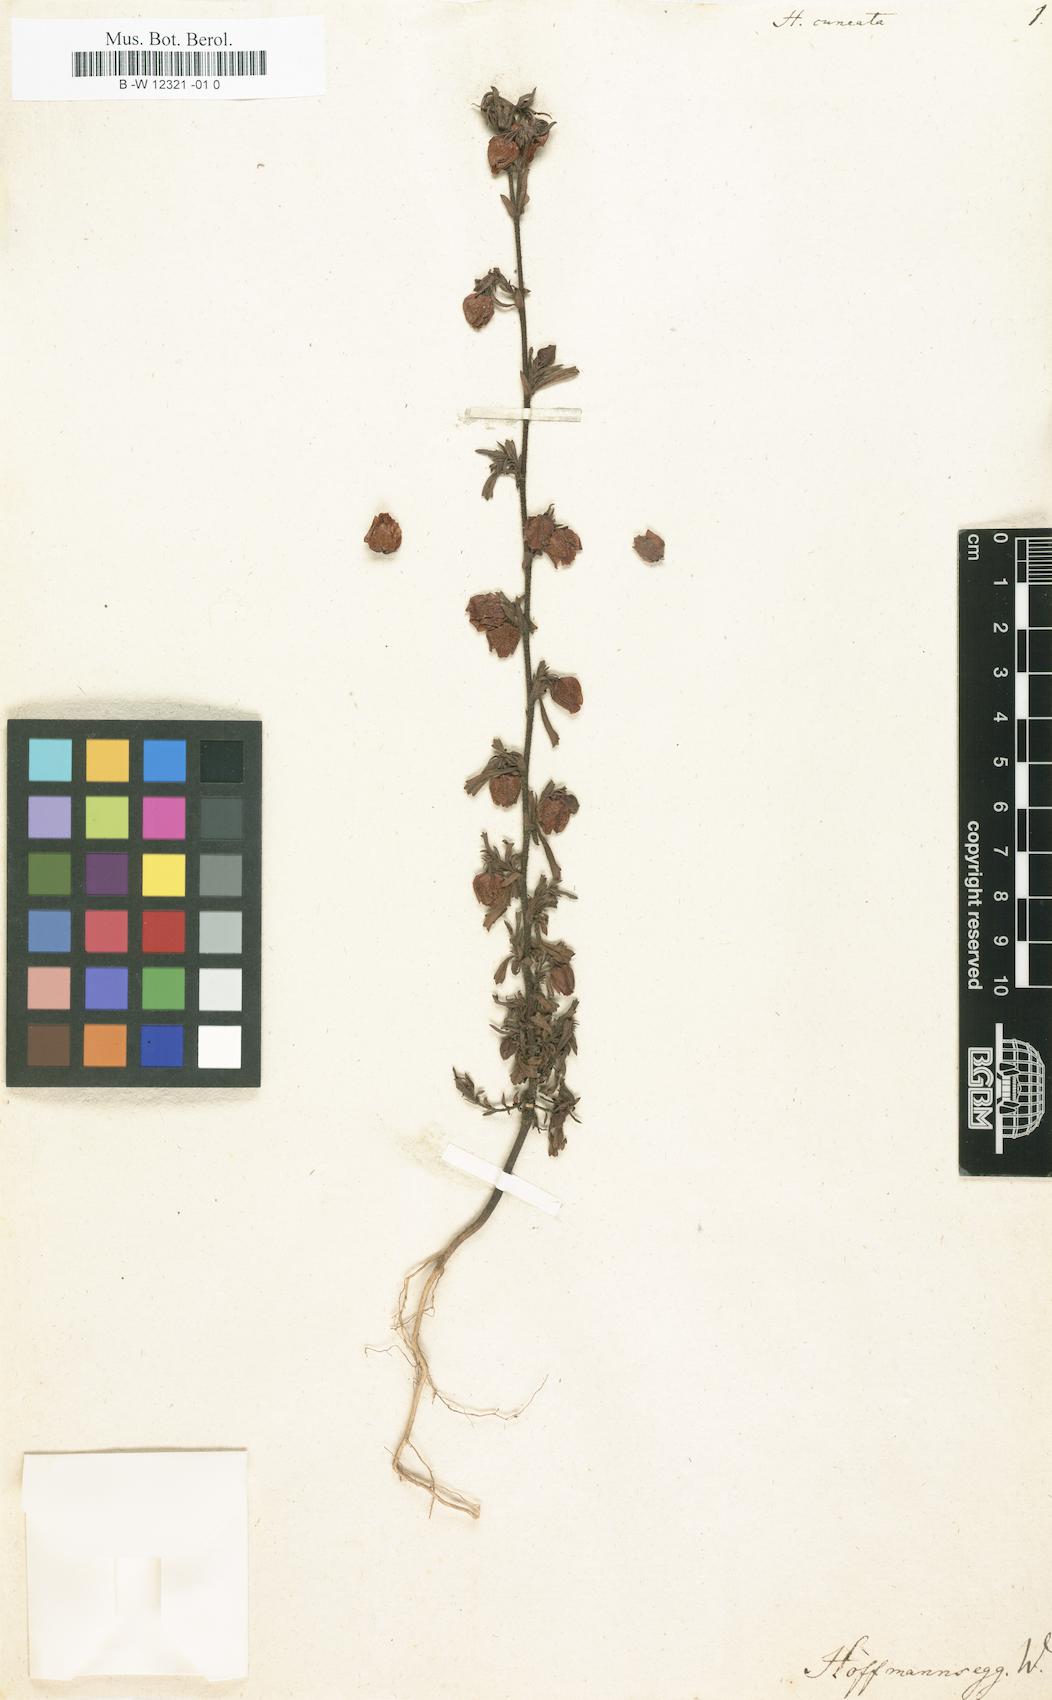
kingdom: Plantae
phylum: Tracheophyta
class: Magnoliopsida
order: Malvales
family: Malvaceae
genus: Hermannia
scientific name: Hermannia
